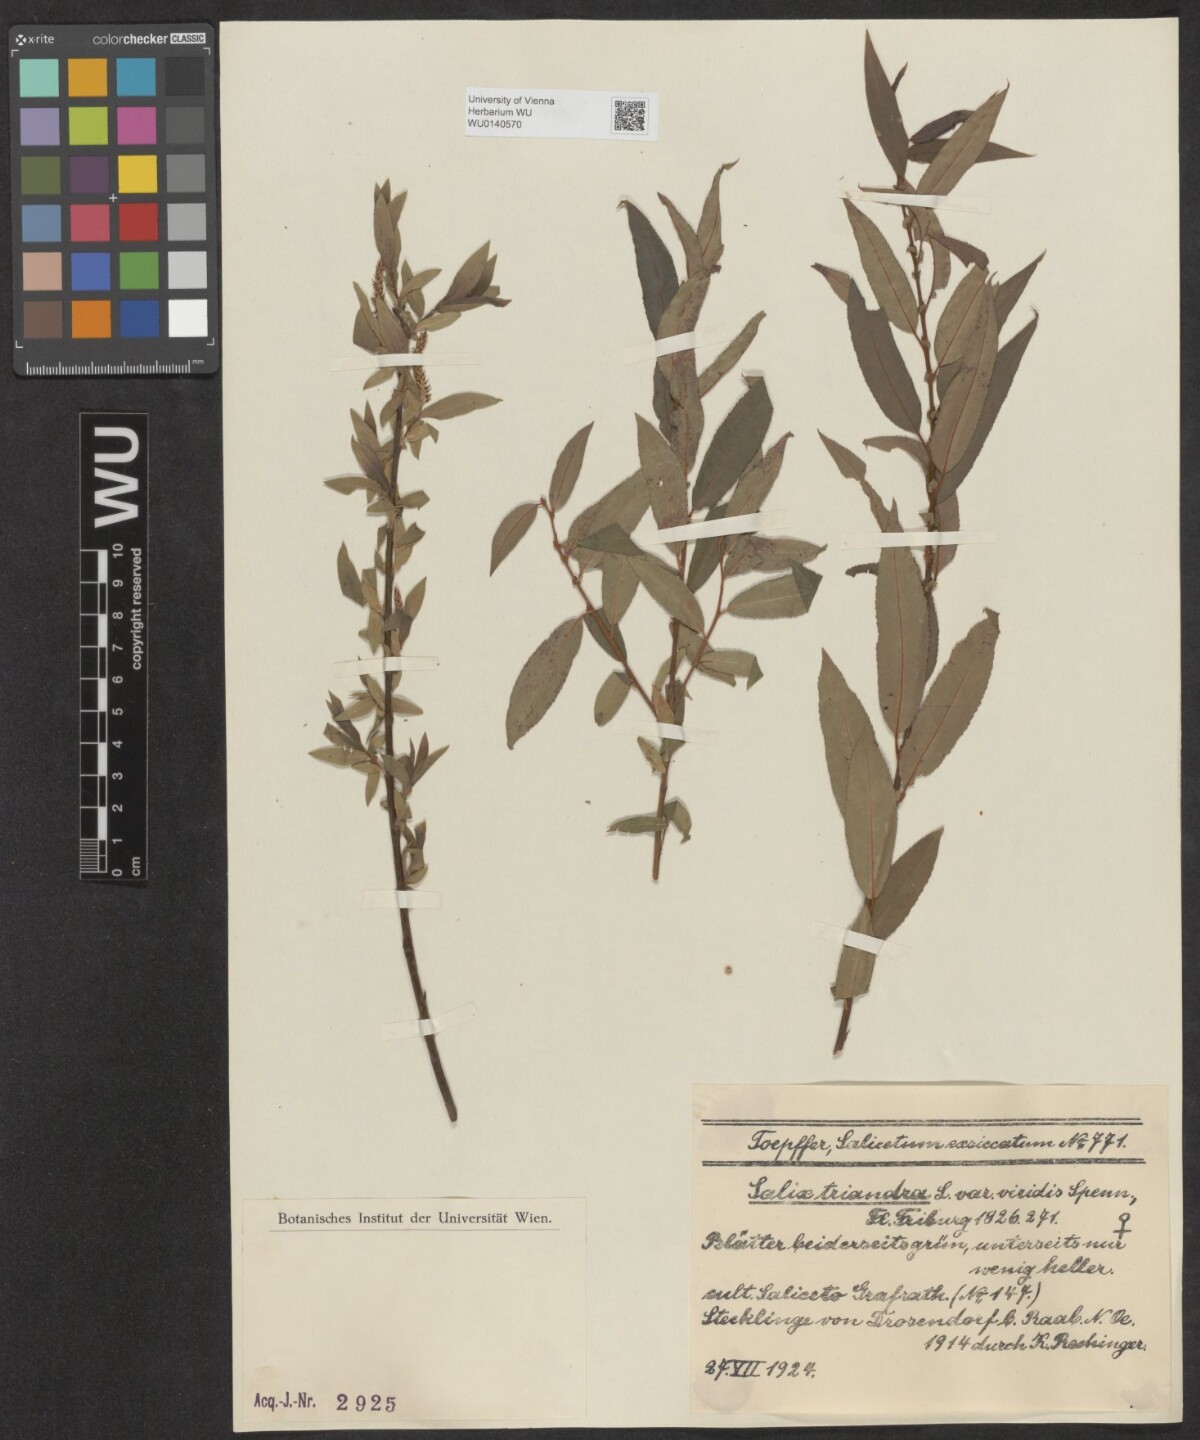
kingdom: Plantae
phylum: Tracheophyta
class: Magnoliopsida
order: Malpighiales
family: Salicaceae
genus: Salix
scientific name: Salix triandra
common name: Almond willow
